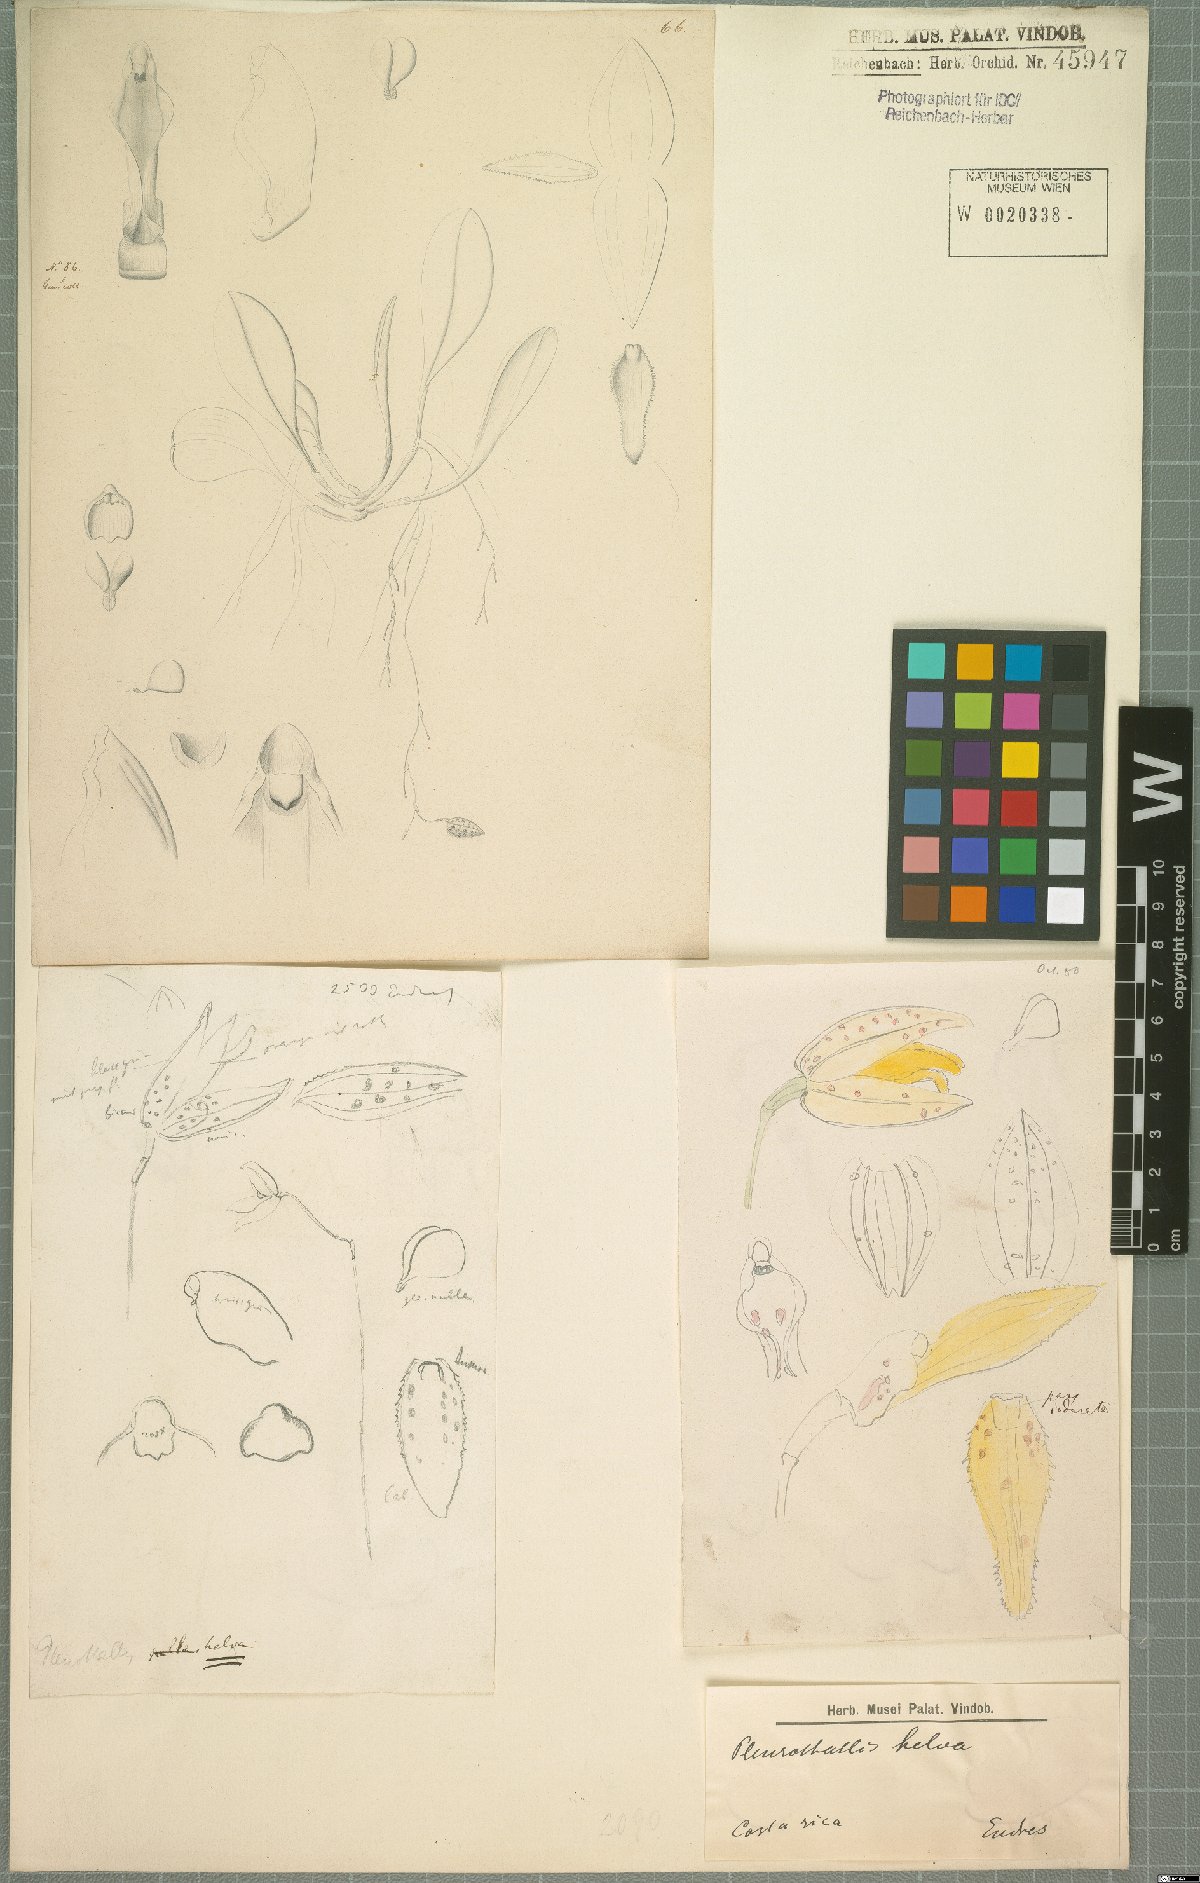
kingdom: Plantae
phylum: Tracheophyta
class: Liliopsida
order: Asparagales
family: Orchidaceae
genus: Pleurothallis
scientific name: Pleurothallis
